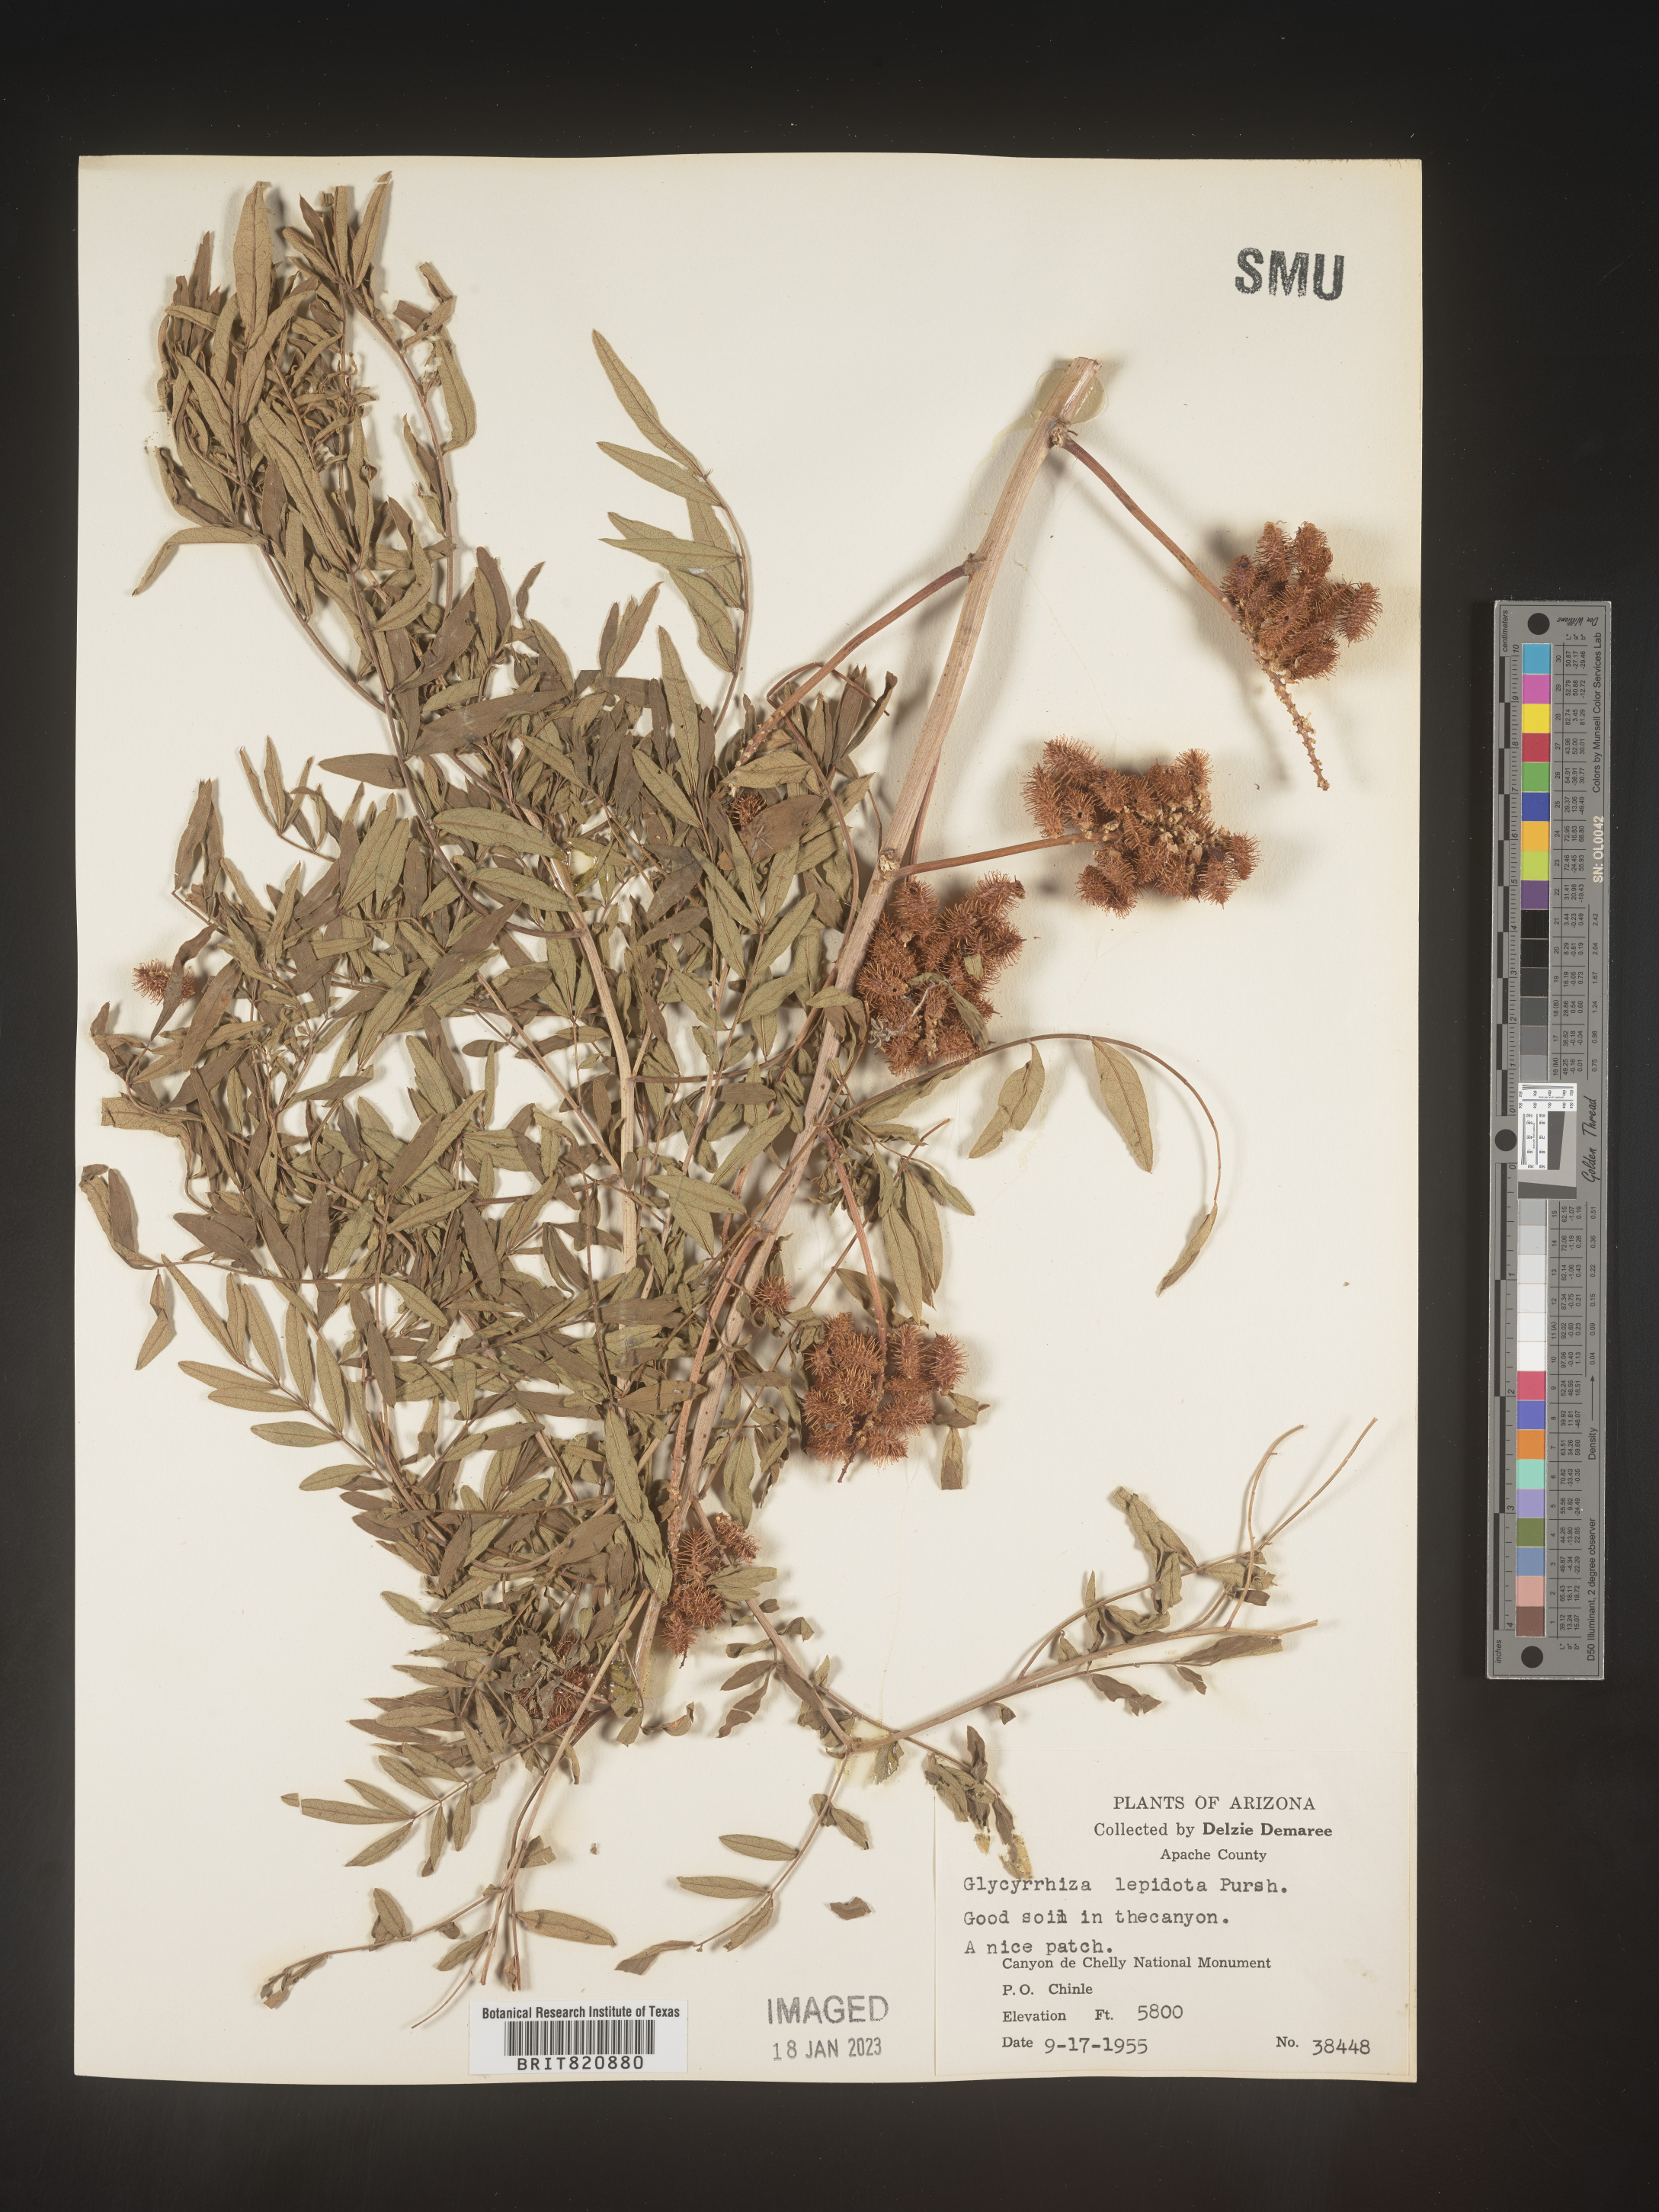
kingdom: Plantae
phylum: Tracheophyta
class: Magnoliopsida
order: Fabales
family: Fabaceae
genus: Glycyrrhiza
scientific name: Glycyrrhiza lepidota
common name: American liquorice
